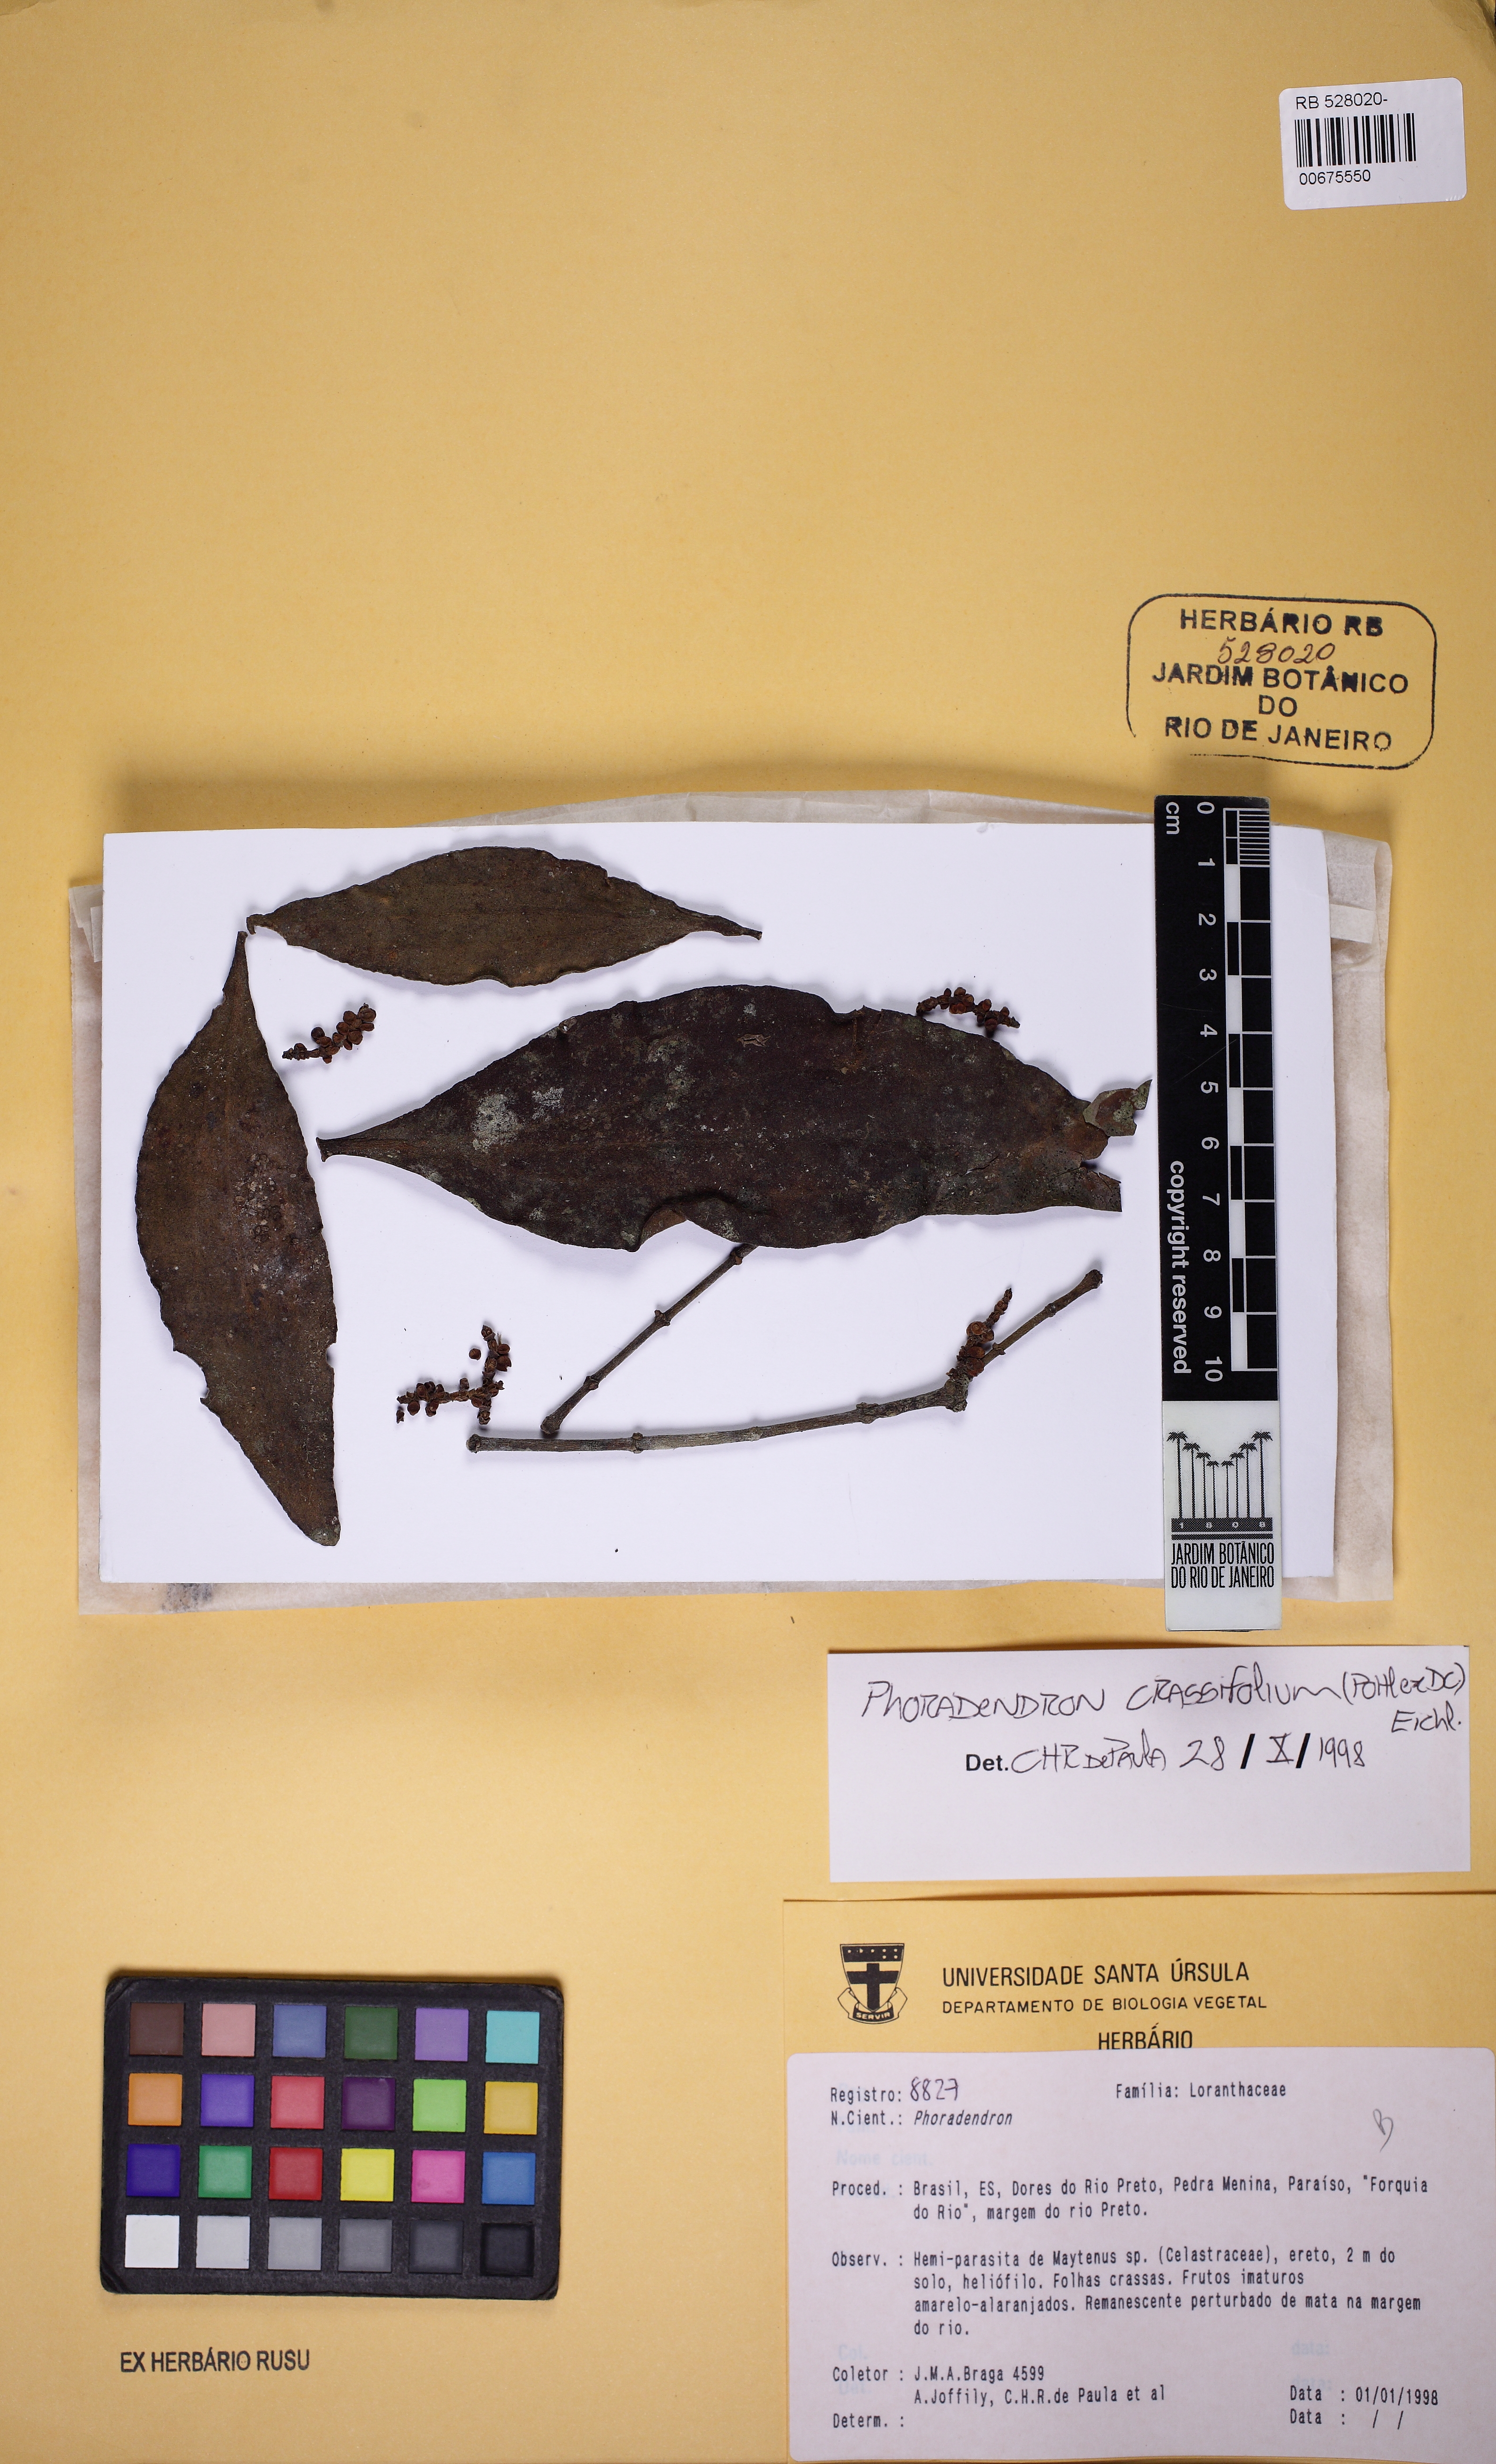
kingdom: Plantae
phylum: Tracheophyta
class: Magnoliopsida
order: Santalales
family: Viscaceae
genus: Phoradendron
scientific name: Phoradendron crassifolium
